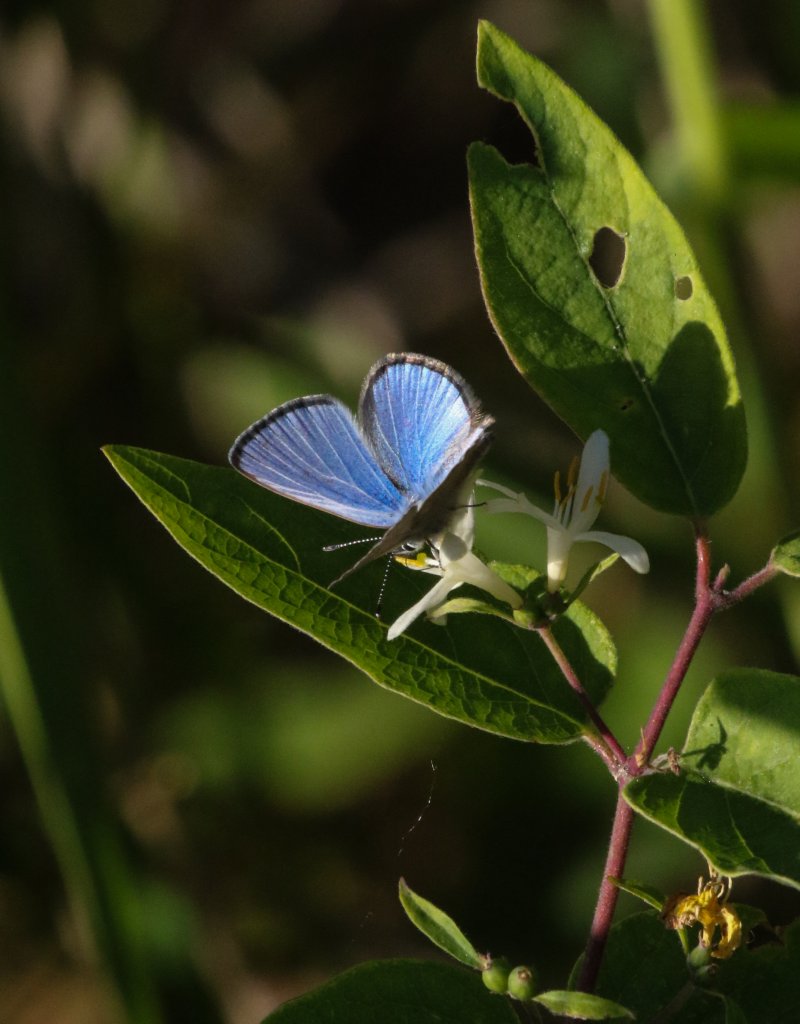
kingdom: Animalia
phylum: Arthropoda
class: Insecta
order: Lepidoptera
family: Lycaenidae
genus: Glaucopsyche
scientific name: Glaucopsyche lygdamus
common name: Silvery Blue
